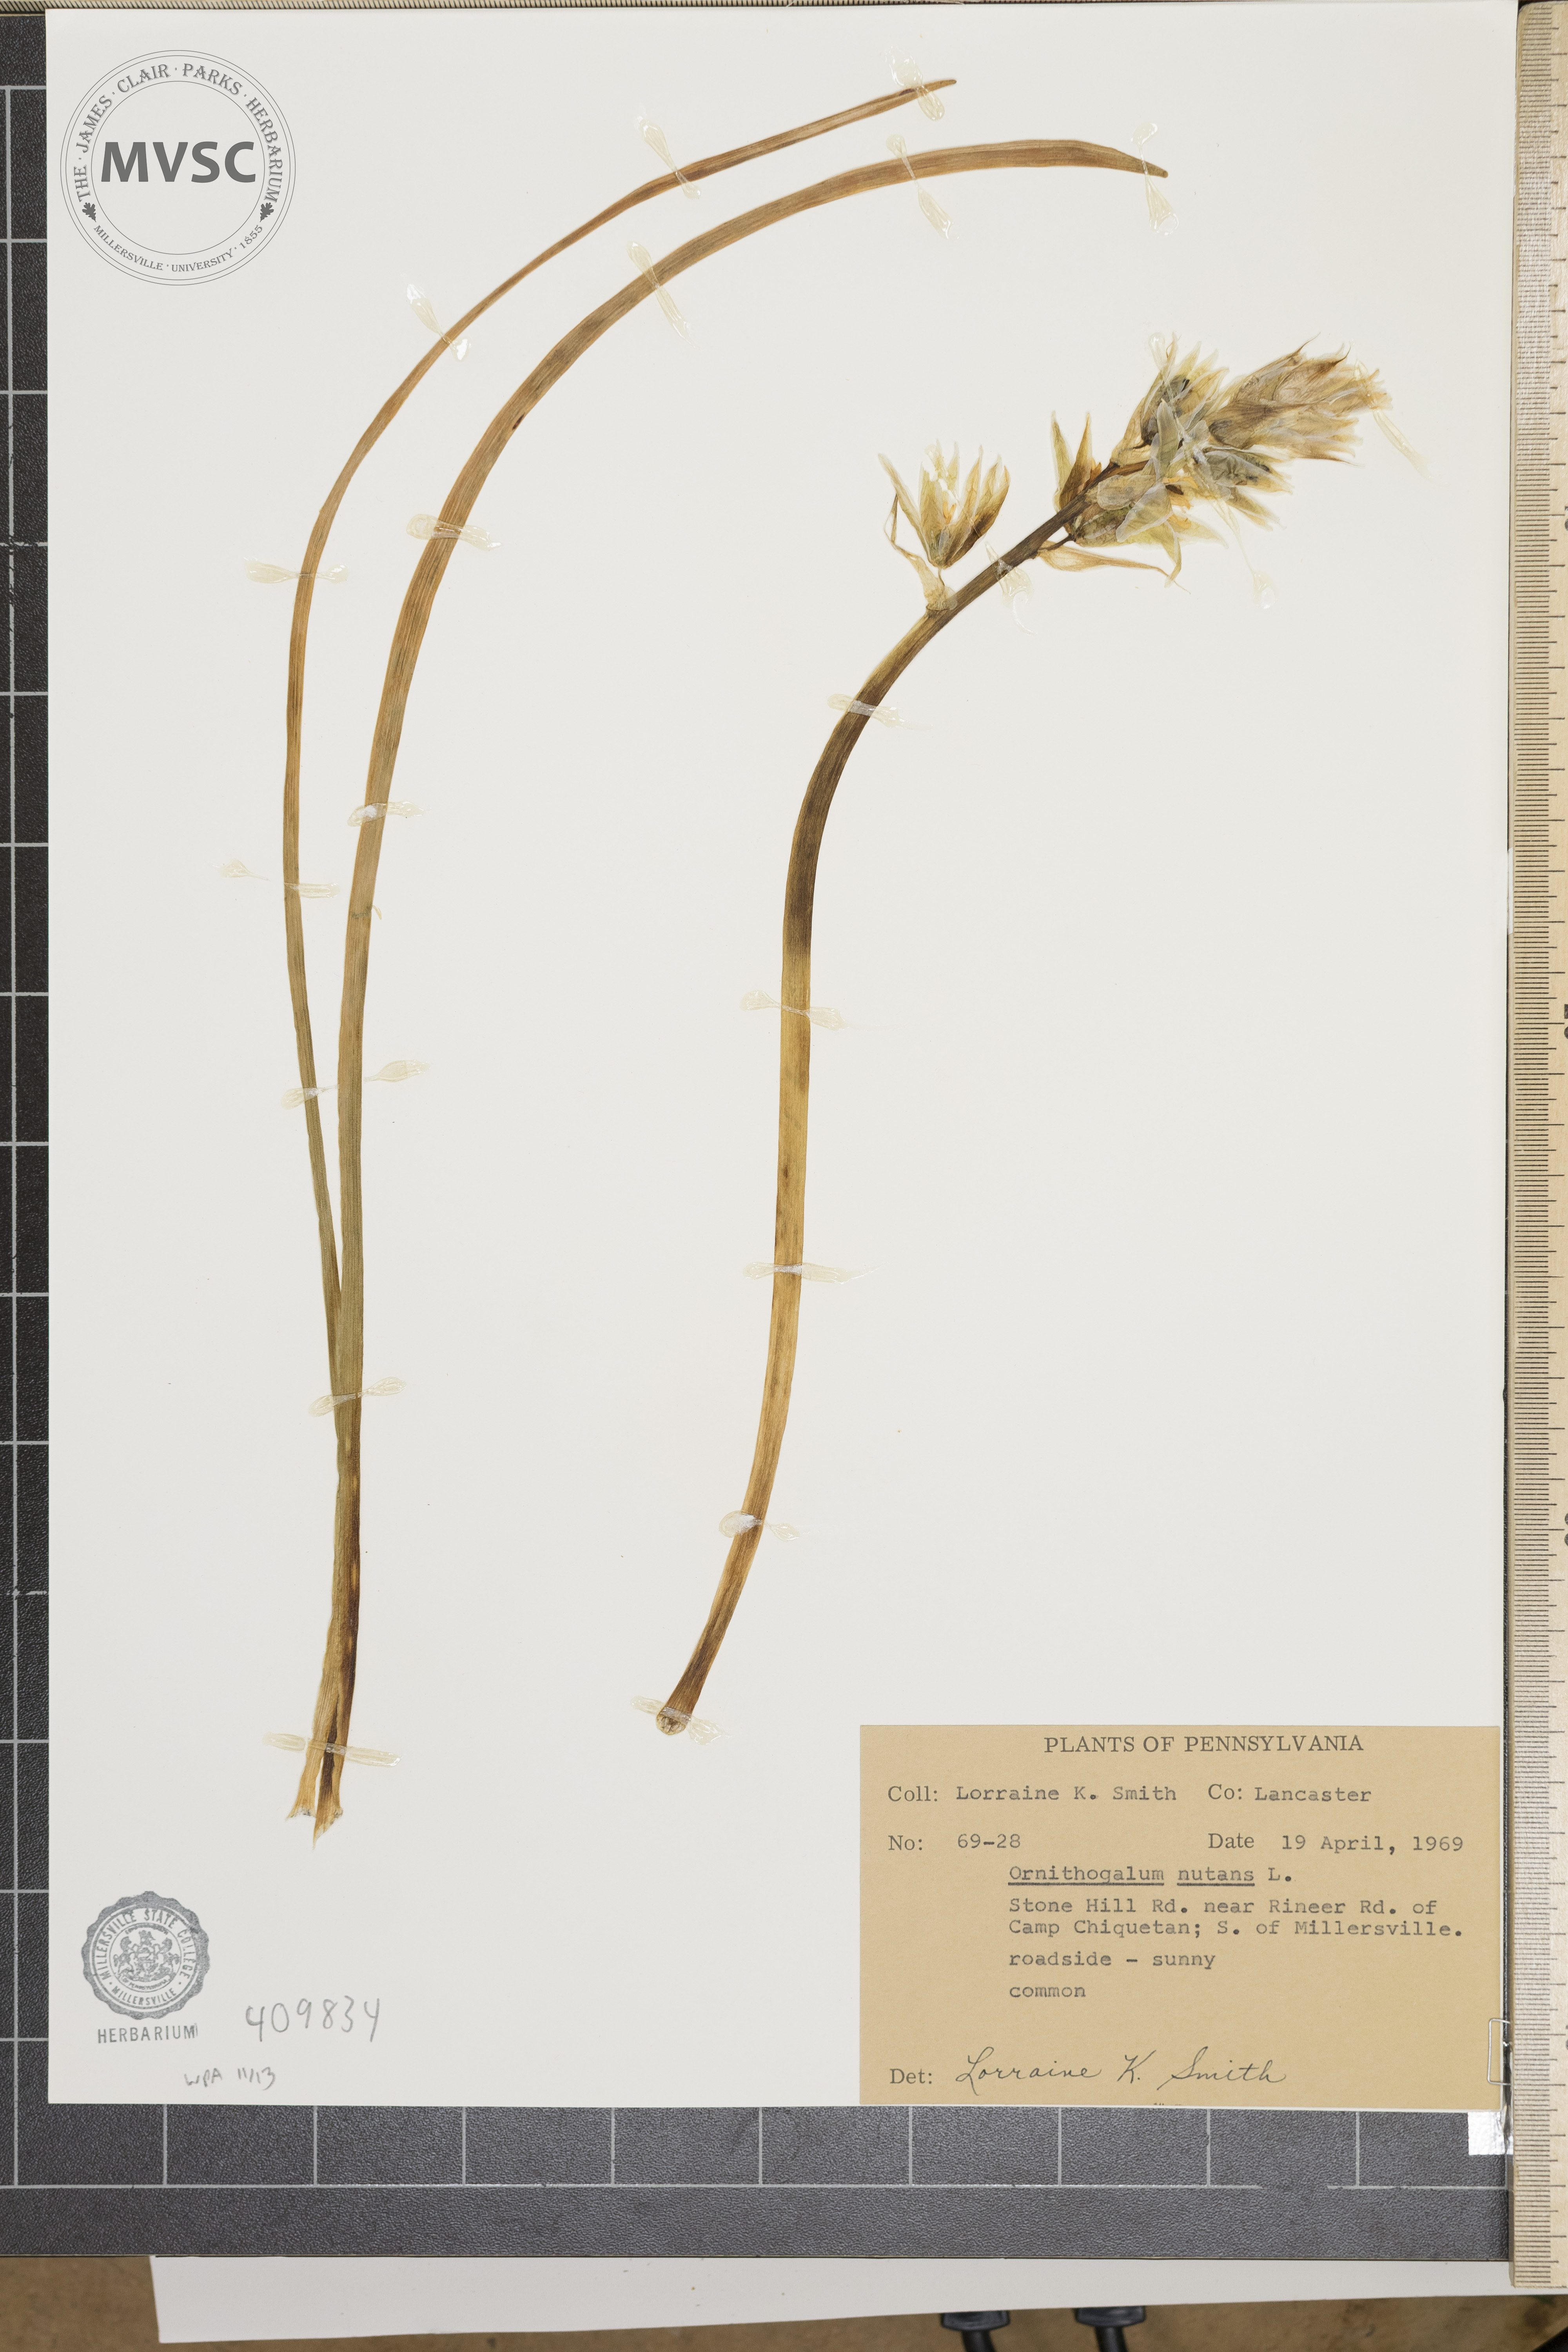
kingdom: Plantae
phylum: Tracheophyta
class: Liliopsida
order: Asparagales
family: Asparagaceae
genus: Ornithogalum
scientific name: Ornithogalum nutans
